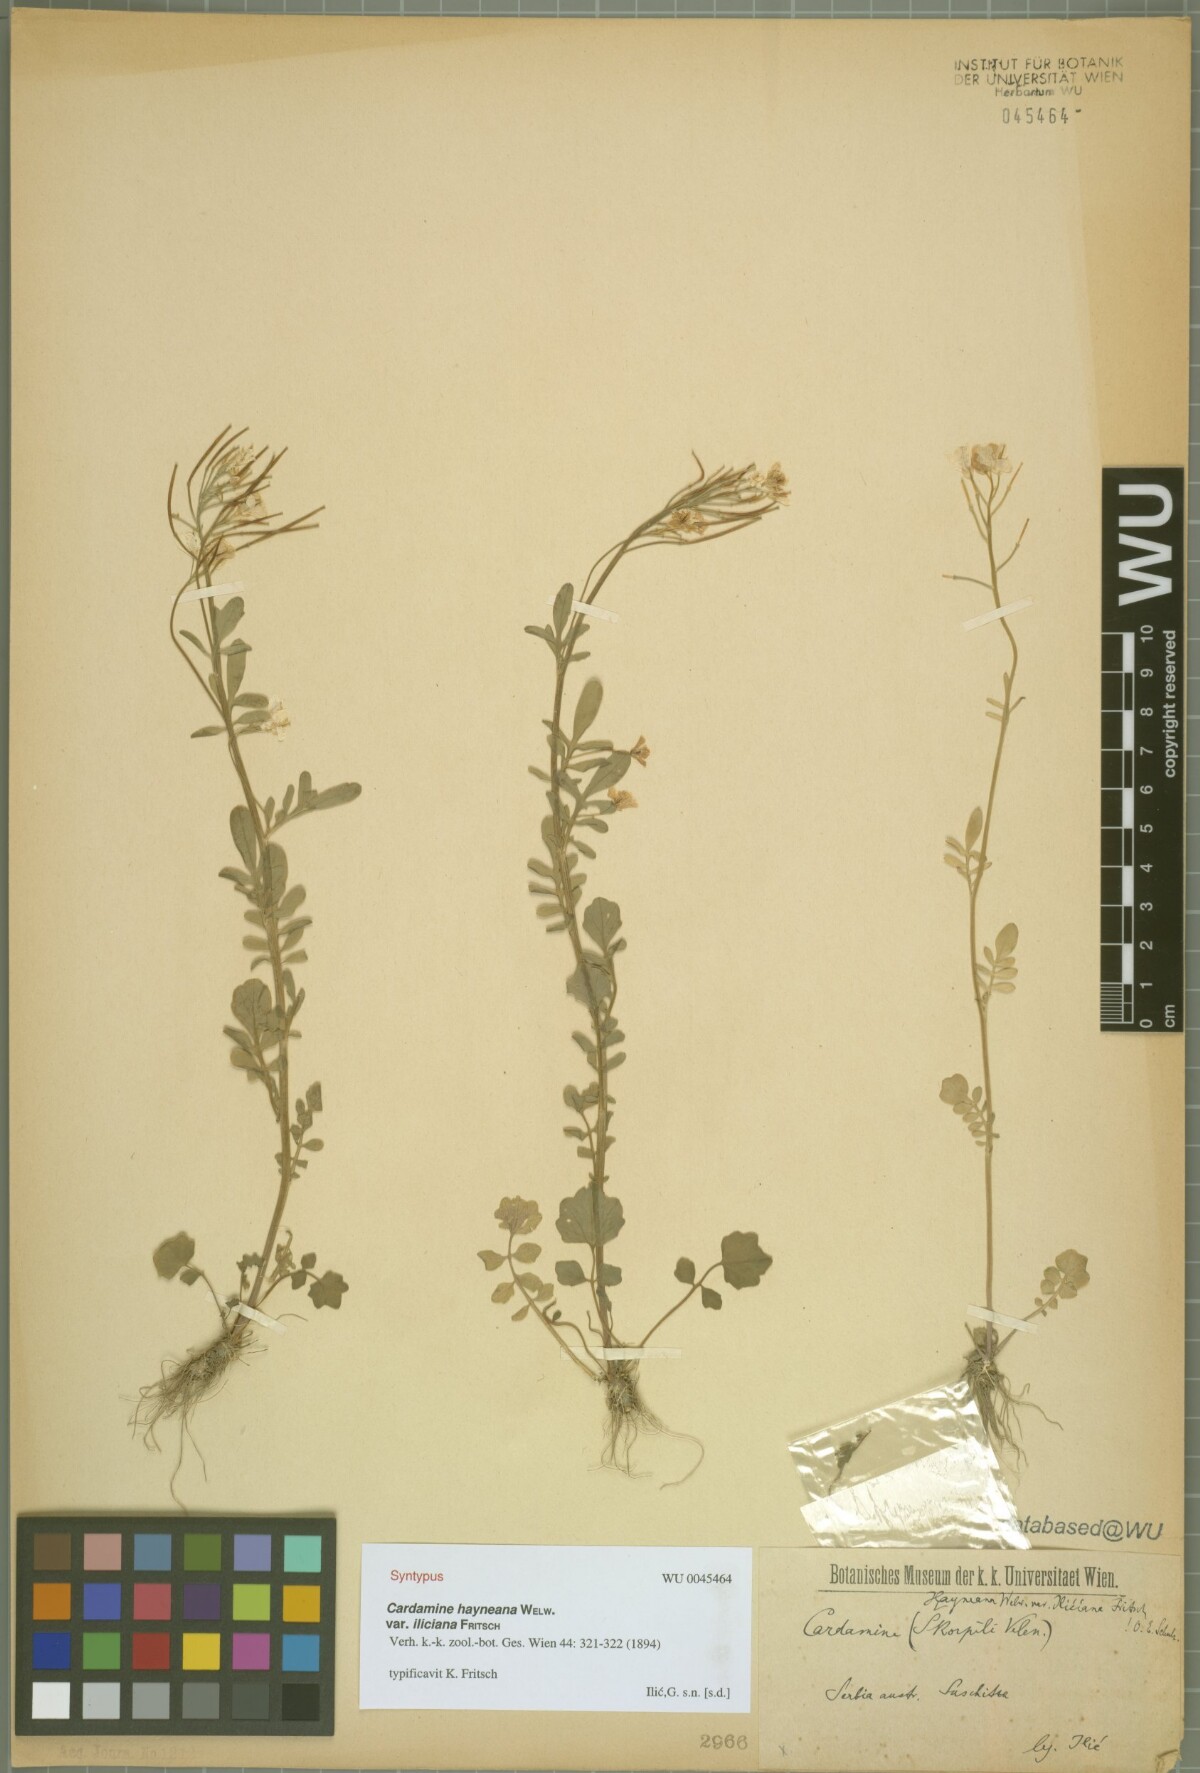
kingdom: Plantae
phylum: Tracheophyta
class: Magnoliopsida
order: Brassicales
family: Brassicaceae
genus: Cardamine
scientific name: Cardamine pratensis
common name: Cuckoo flower
